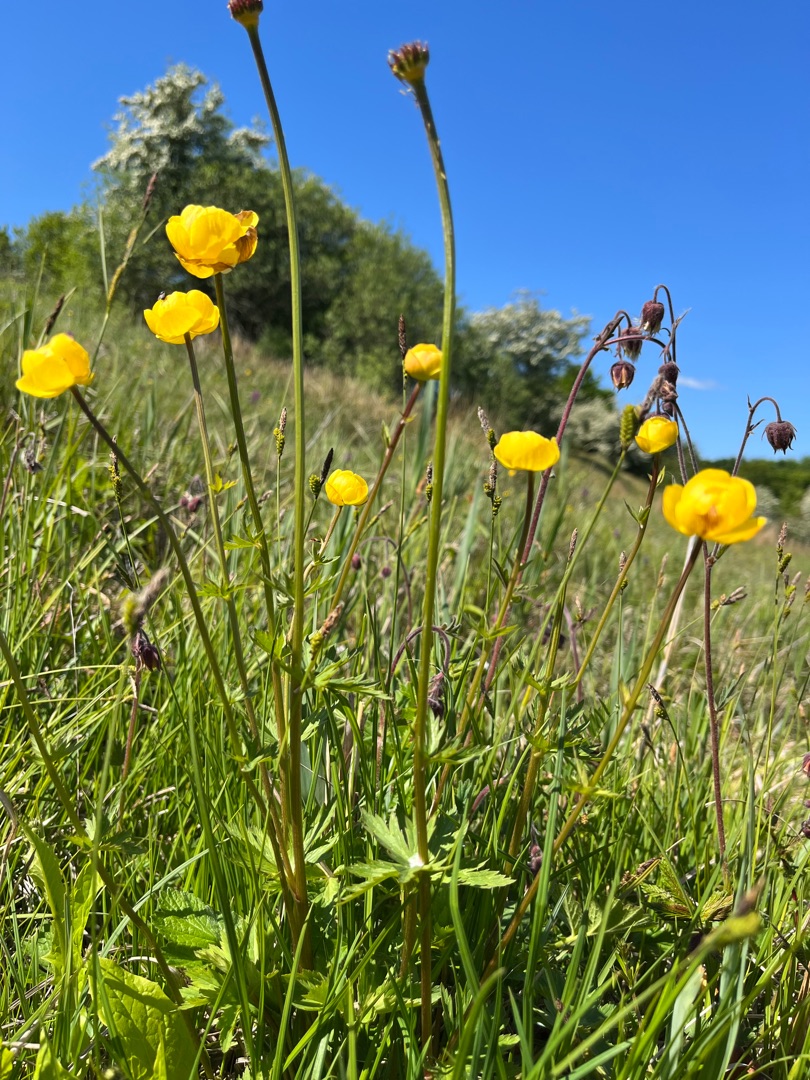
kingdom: Plantae
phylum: Tracheophyta
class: Magnoliopsida
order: Ranunculales
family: Ranunculaceae
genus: Trollius
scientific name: Trollius europaeus
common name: Engblomme
